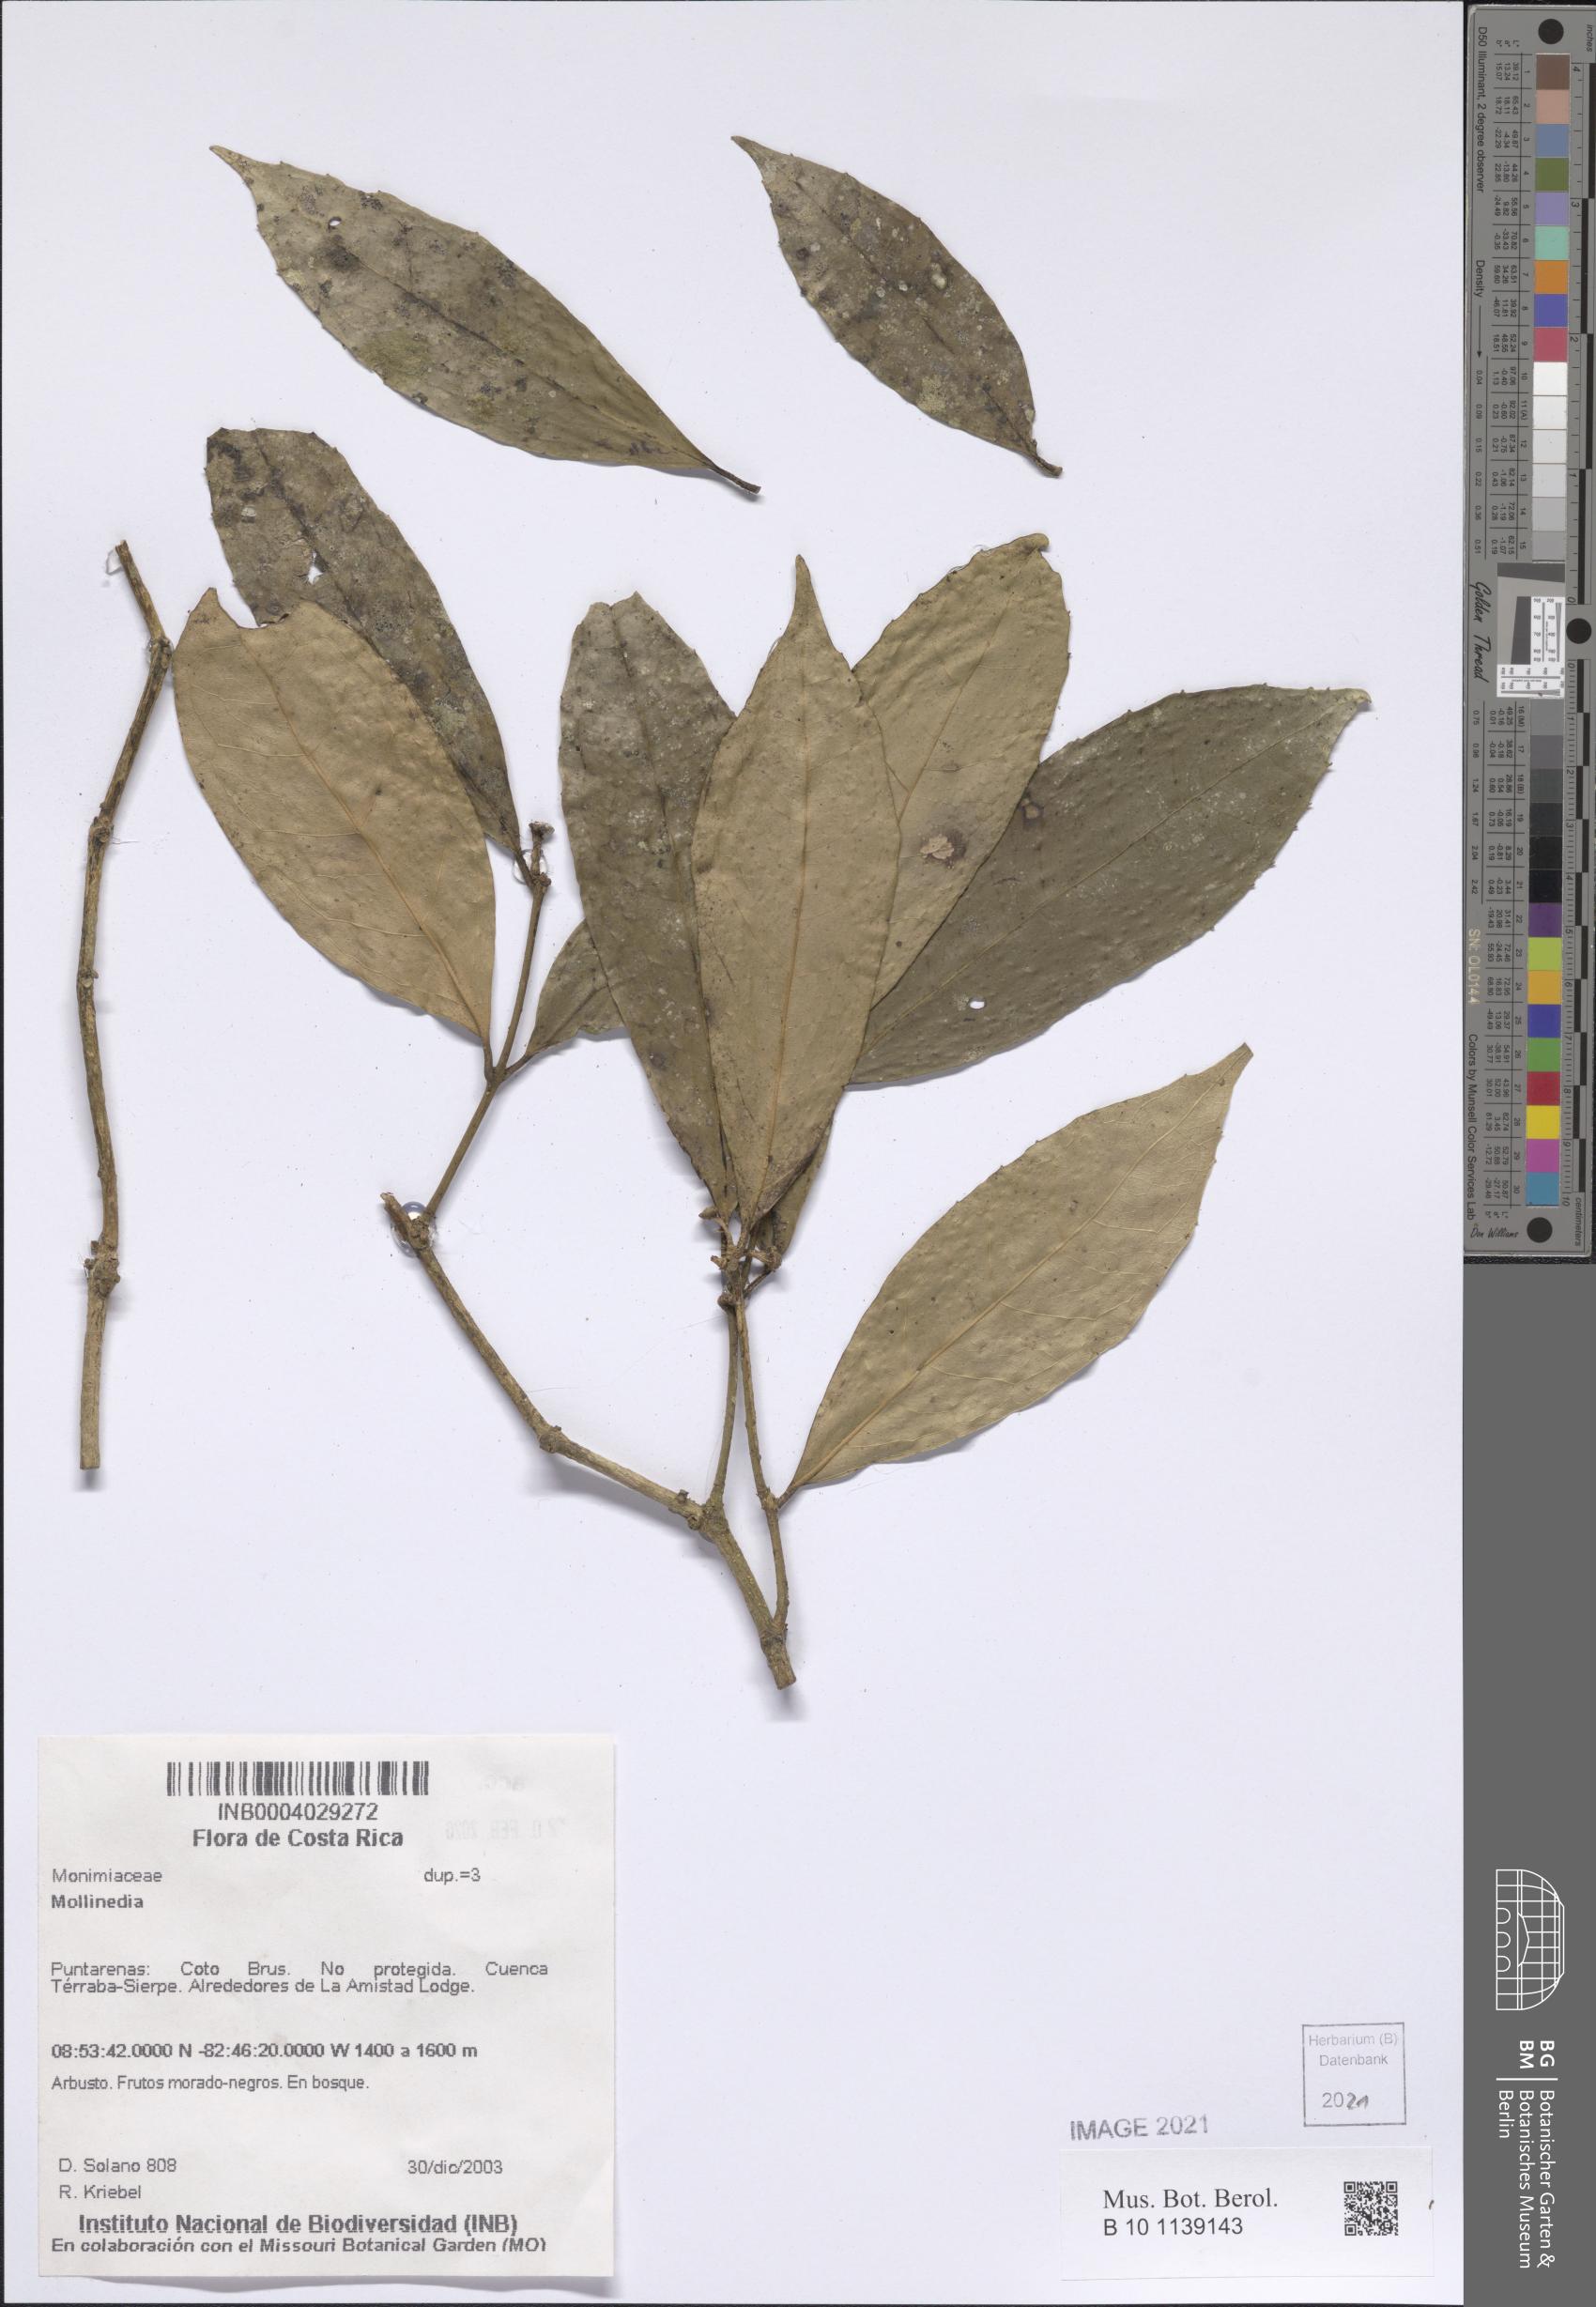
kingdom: Plantae
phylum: Tracheophyta
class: Magnoliopsida
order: Laurales
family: Monimiaceae
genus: Mollinedia
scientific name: Mollinedia viridiflora
